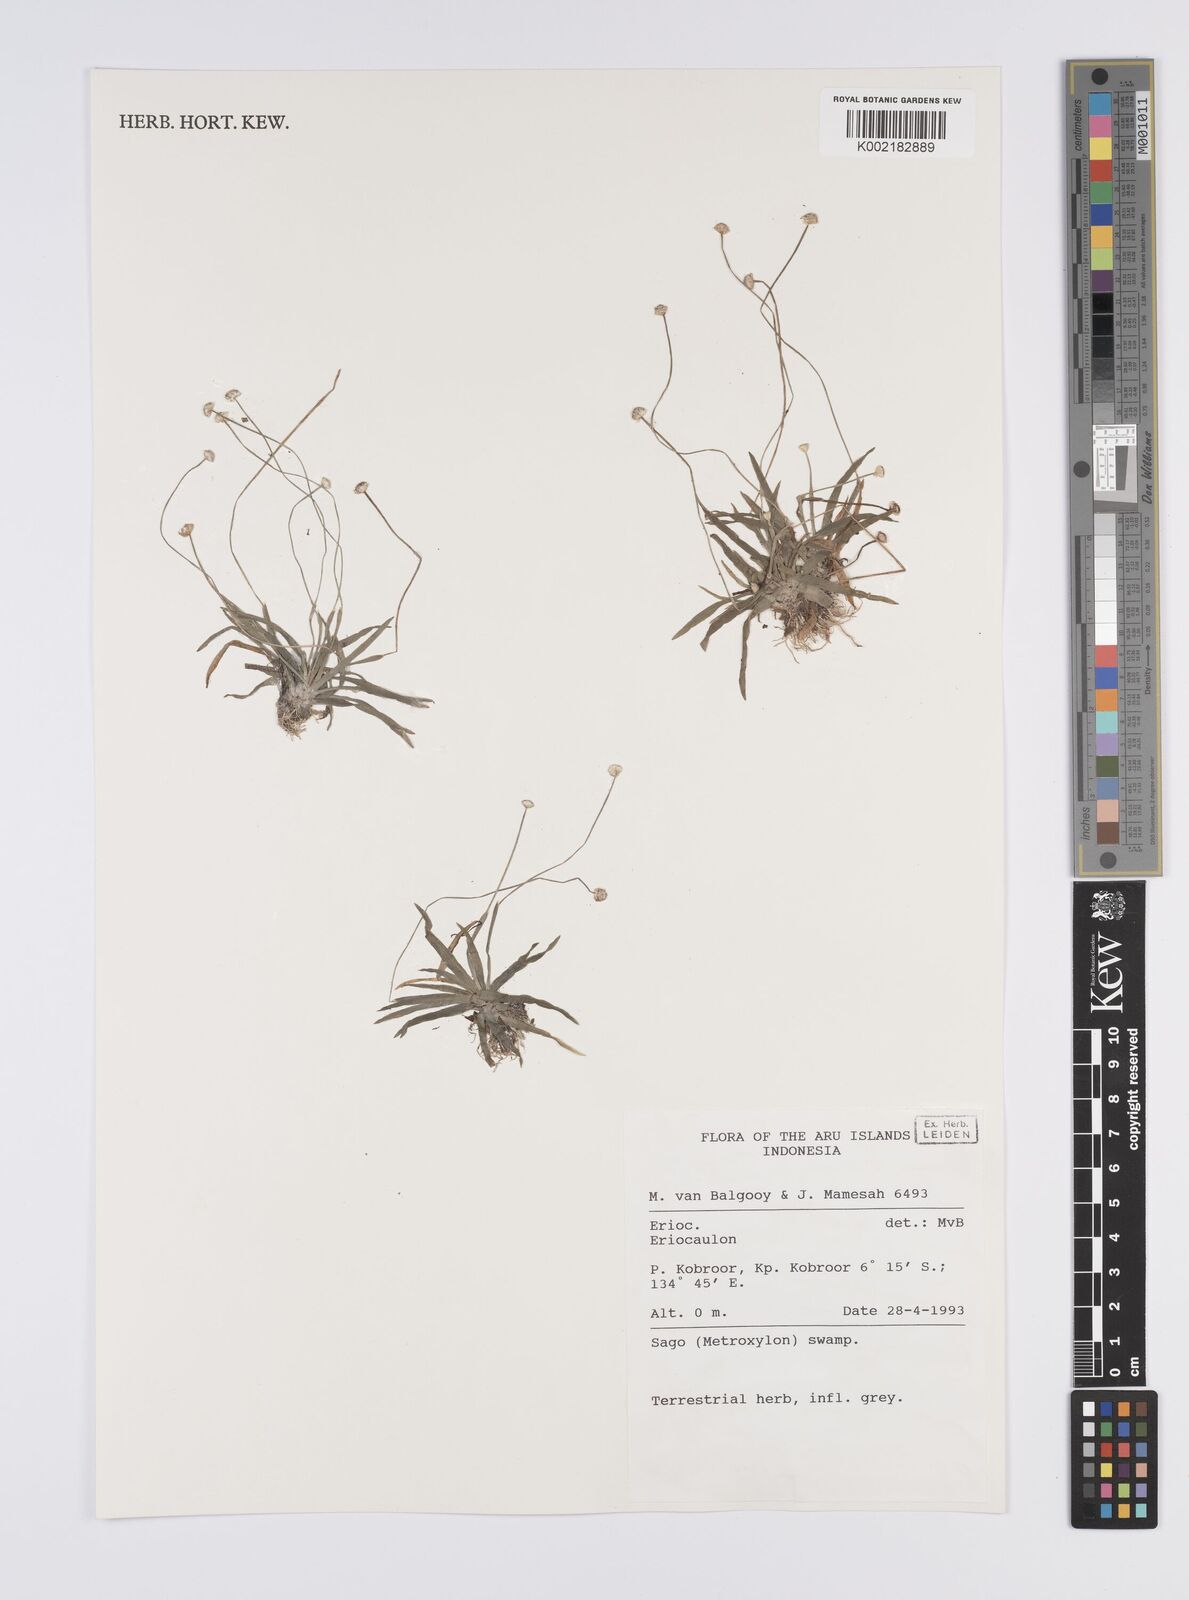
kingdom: Plantae
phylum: Tracheophyta
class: Liliopsida
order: Poales
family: Eriocaulaceae
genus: Eriocaulon
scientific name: Eriocaulon
